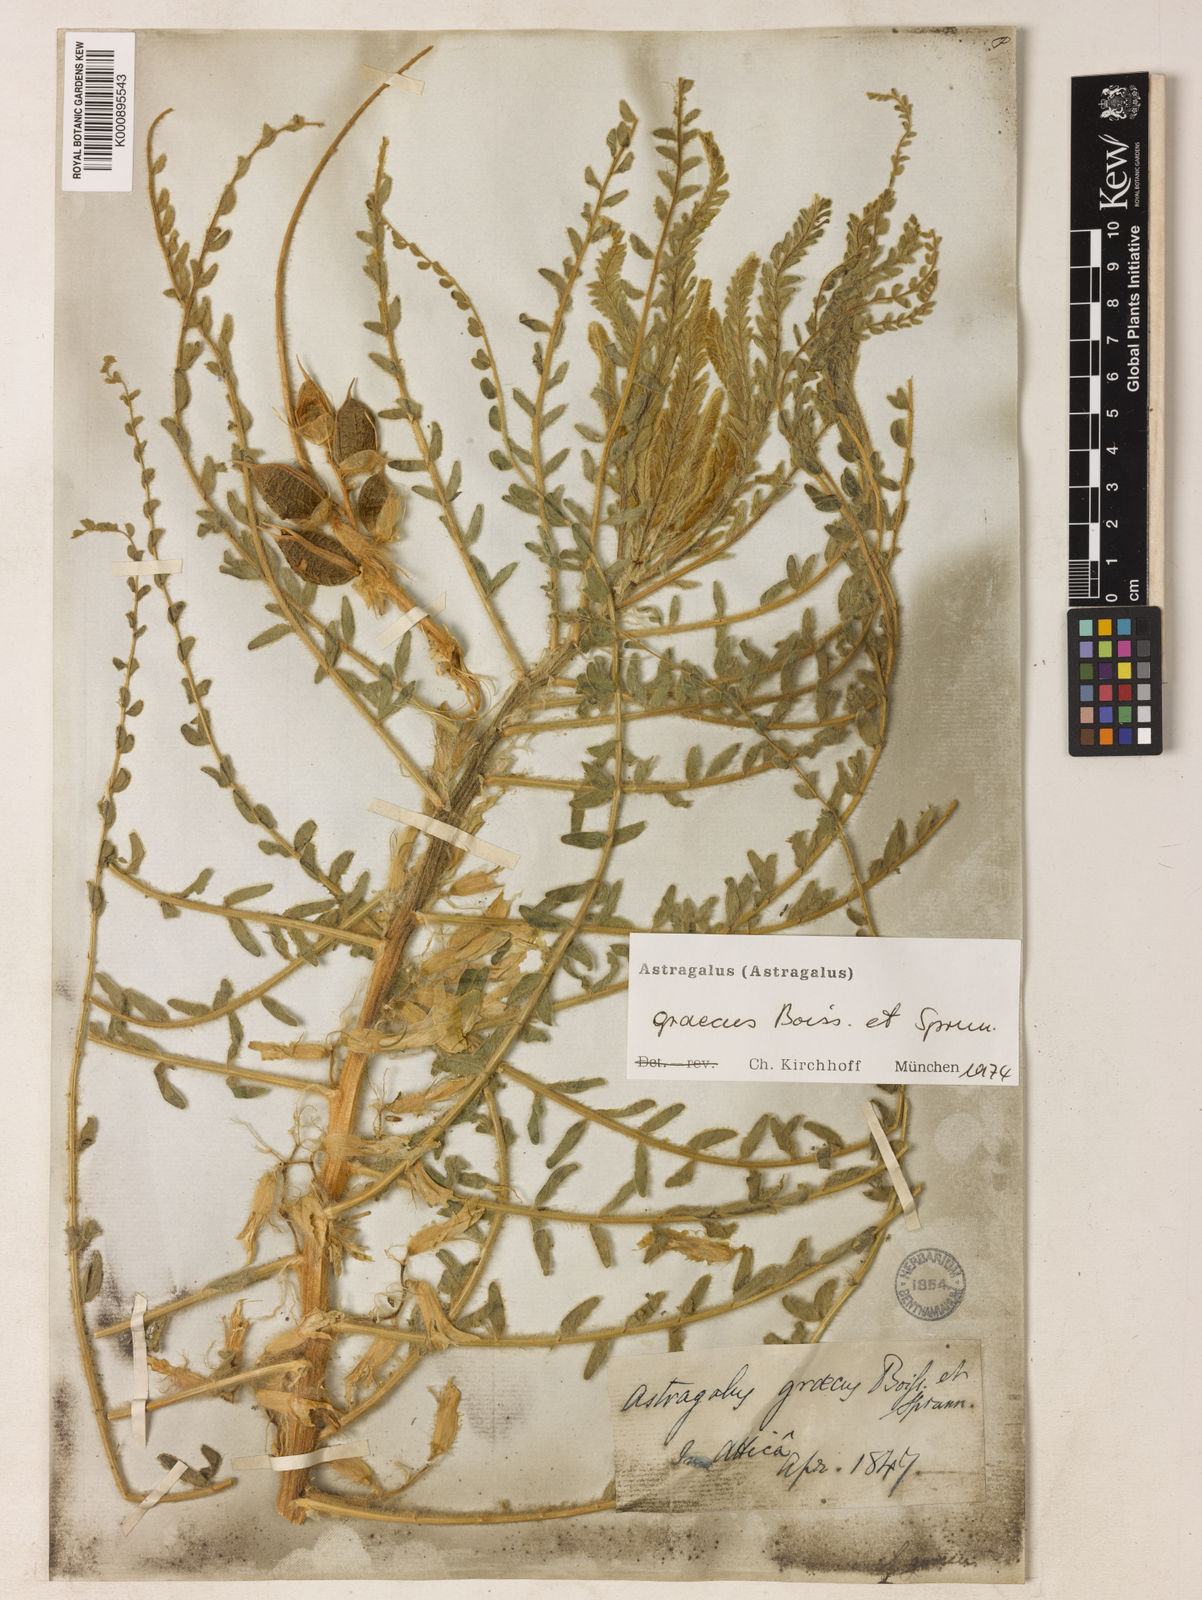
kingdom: Plantae
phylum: Tracheophyta
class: Magnoliopsida
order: Fabales
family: Fabaceae
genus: Astragalus
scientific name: Astragalus graecus
